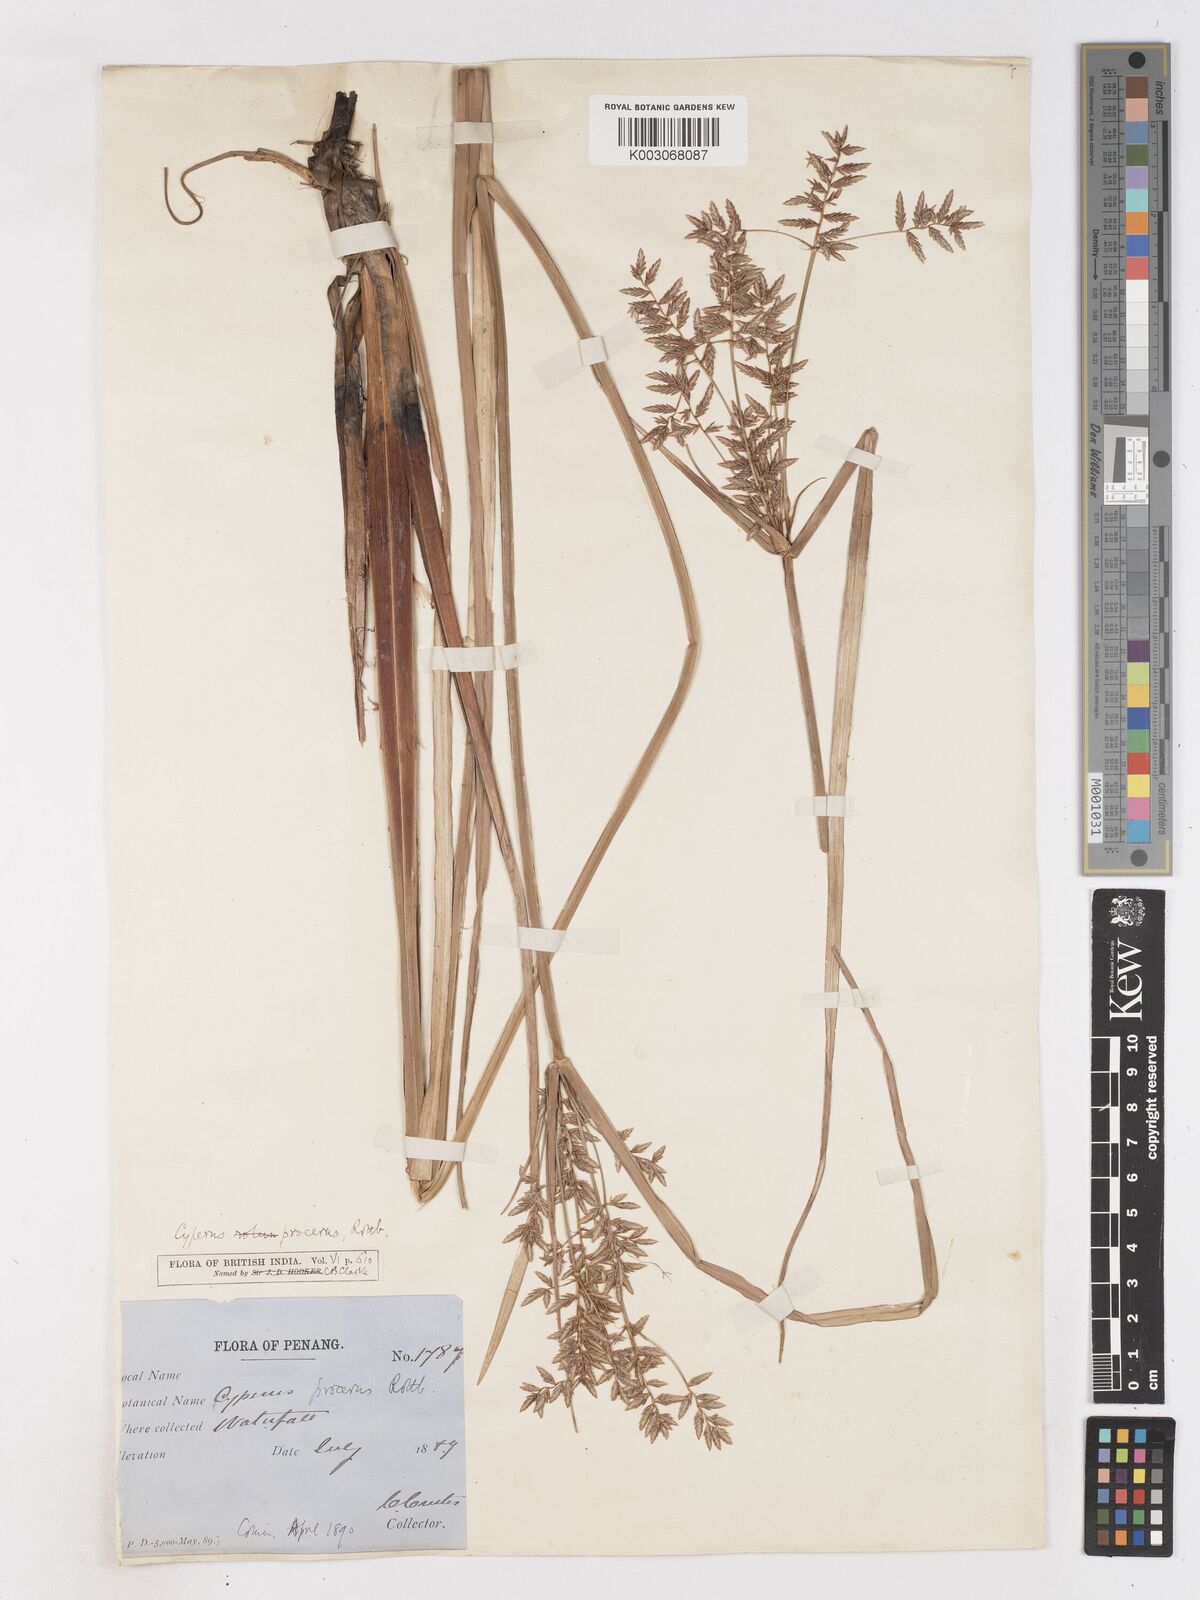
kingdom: Plantae
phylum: Tracheophyta
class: Liliopsida
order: Poales
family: Cyperaceae
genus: Cyperus
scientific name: Cyperus procerus
